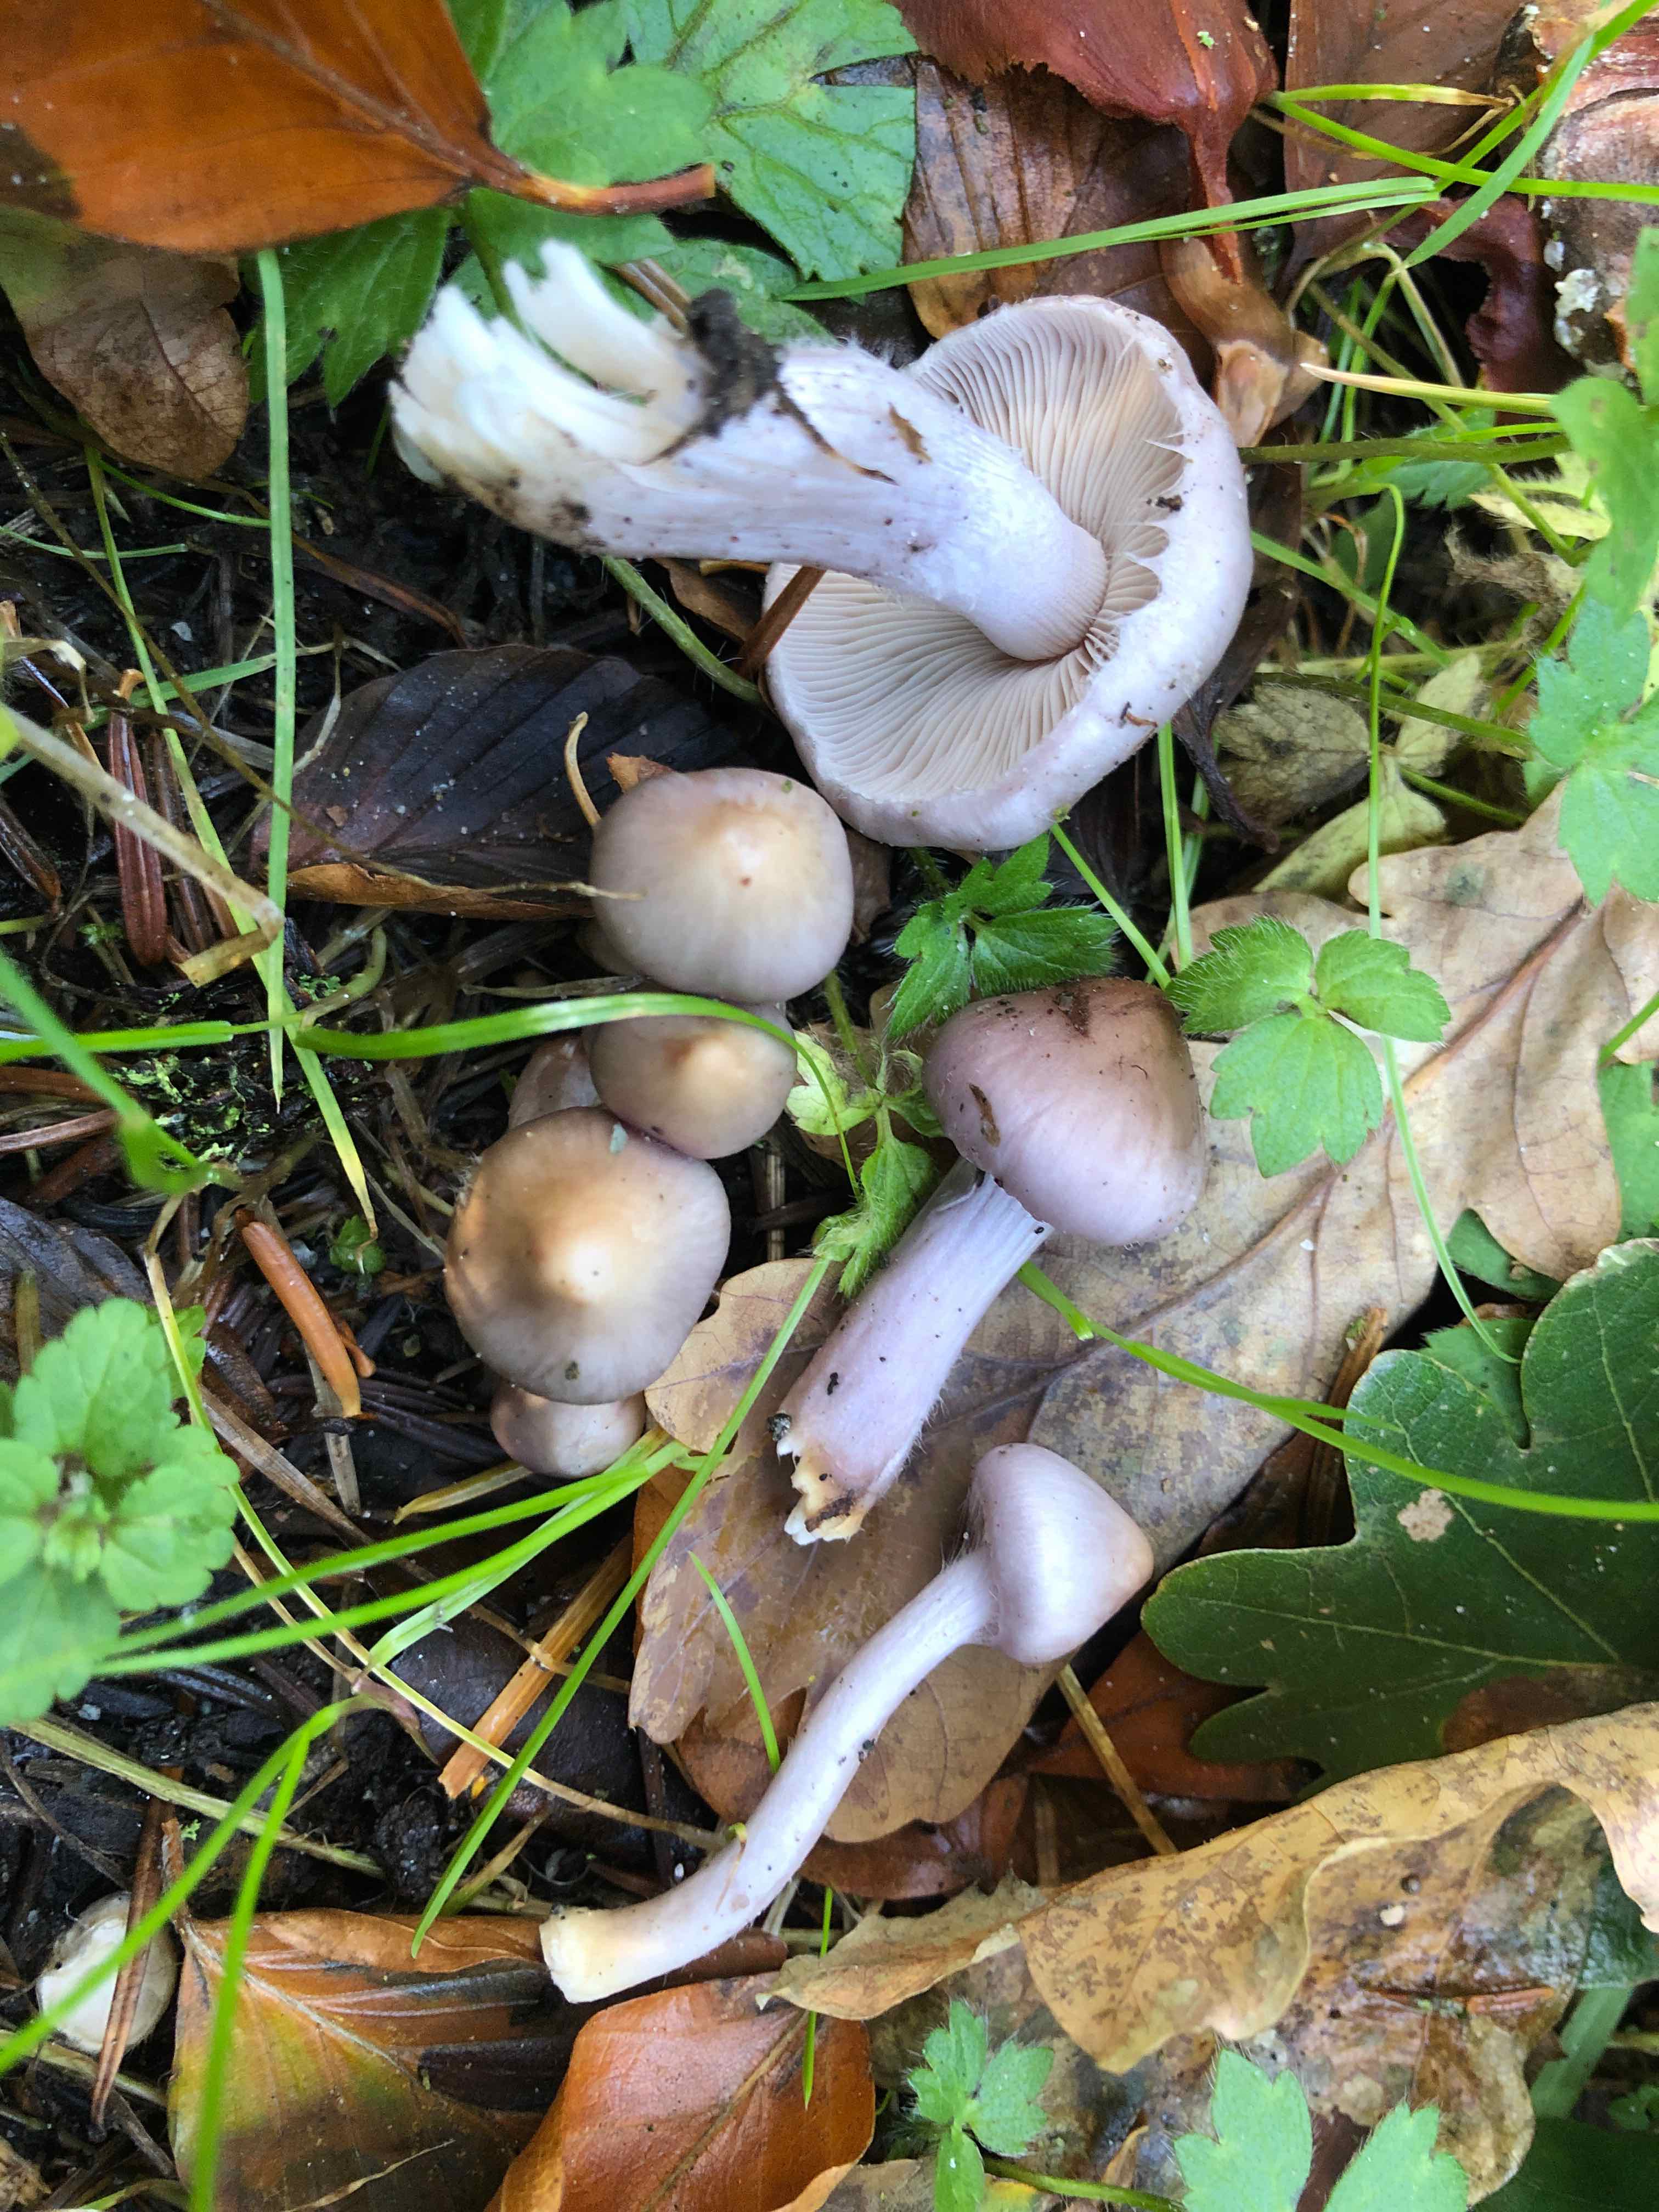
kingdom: Fungi
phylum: Basidiomycota
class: Agaricomycetes
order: Agaricales
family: Inocybaceae
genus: Inocybe
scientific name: Inocybe geophylla
